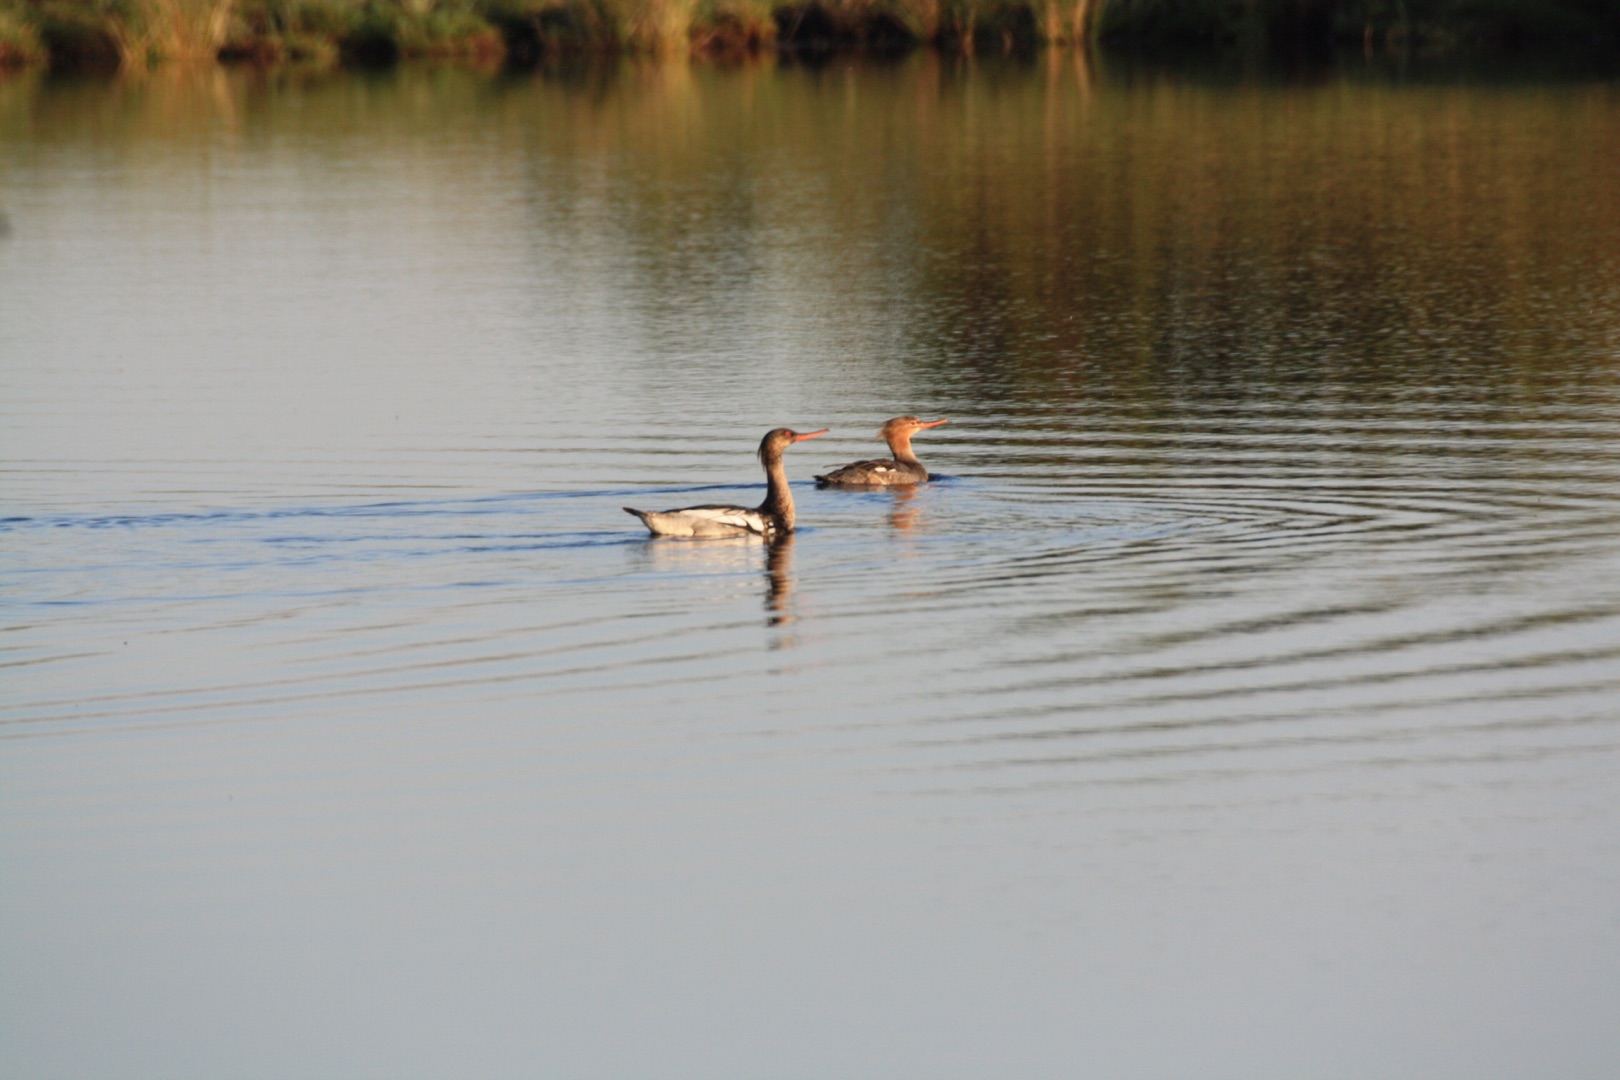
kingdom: Animalia
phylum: Chordata
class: Aves
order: Anseriformes
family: Anatidae
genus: Mergus
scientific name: Mergus serrator
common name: Toppet skallesluger
